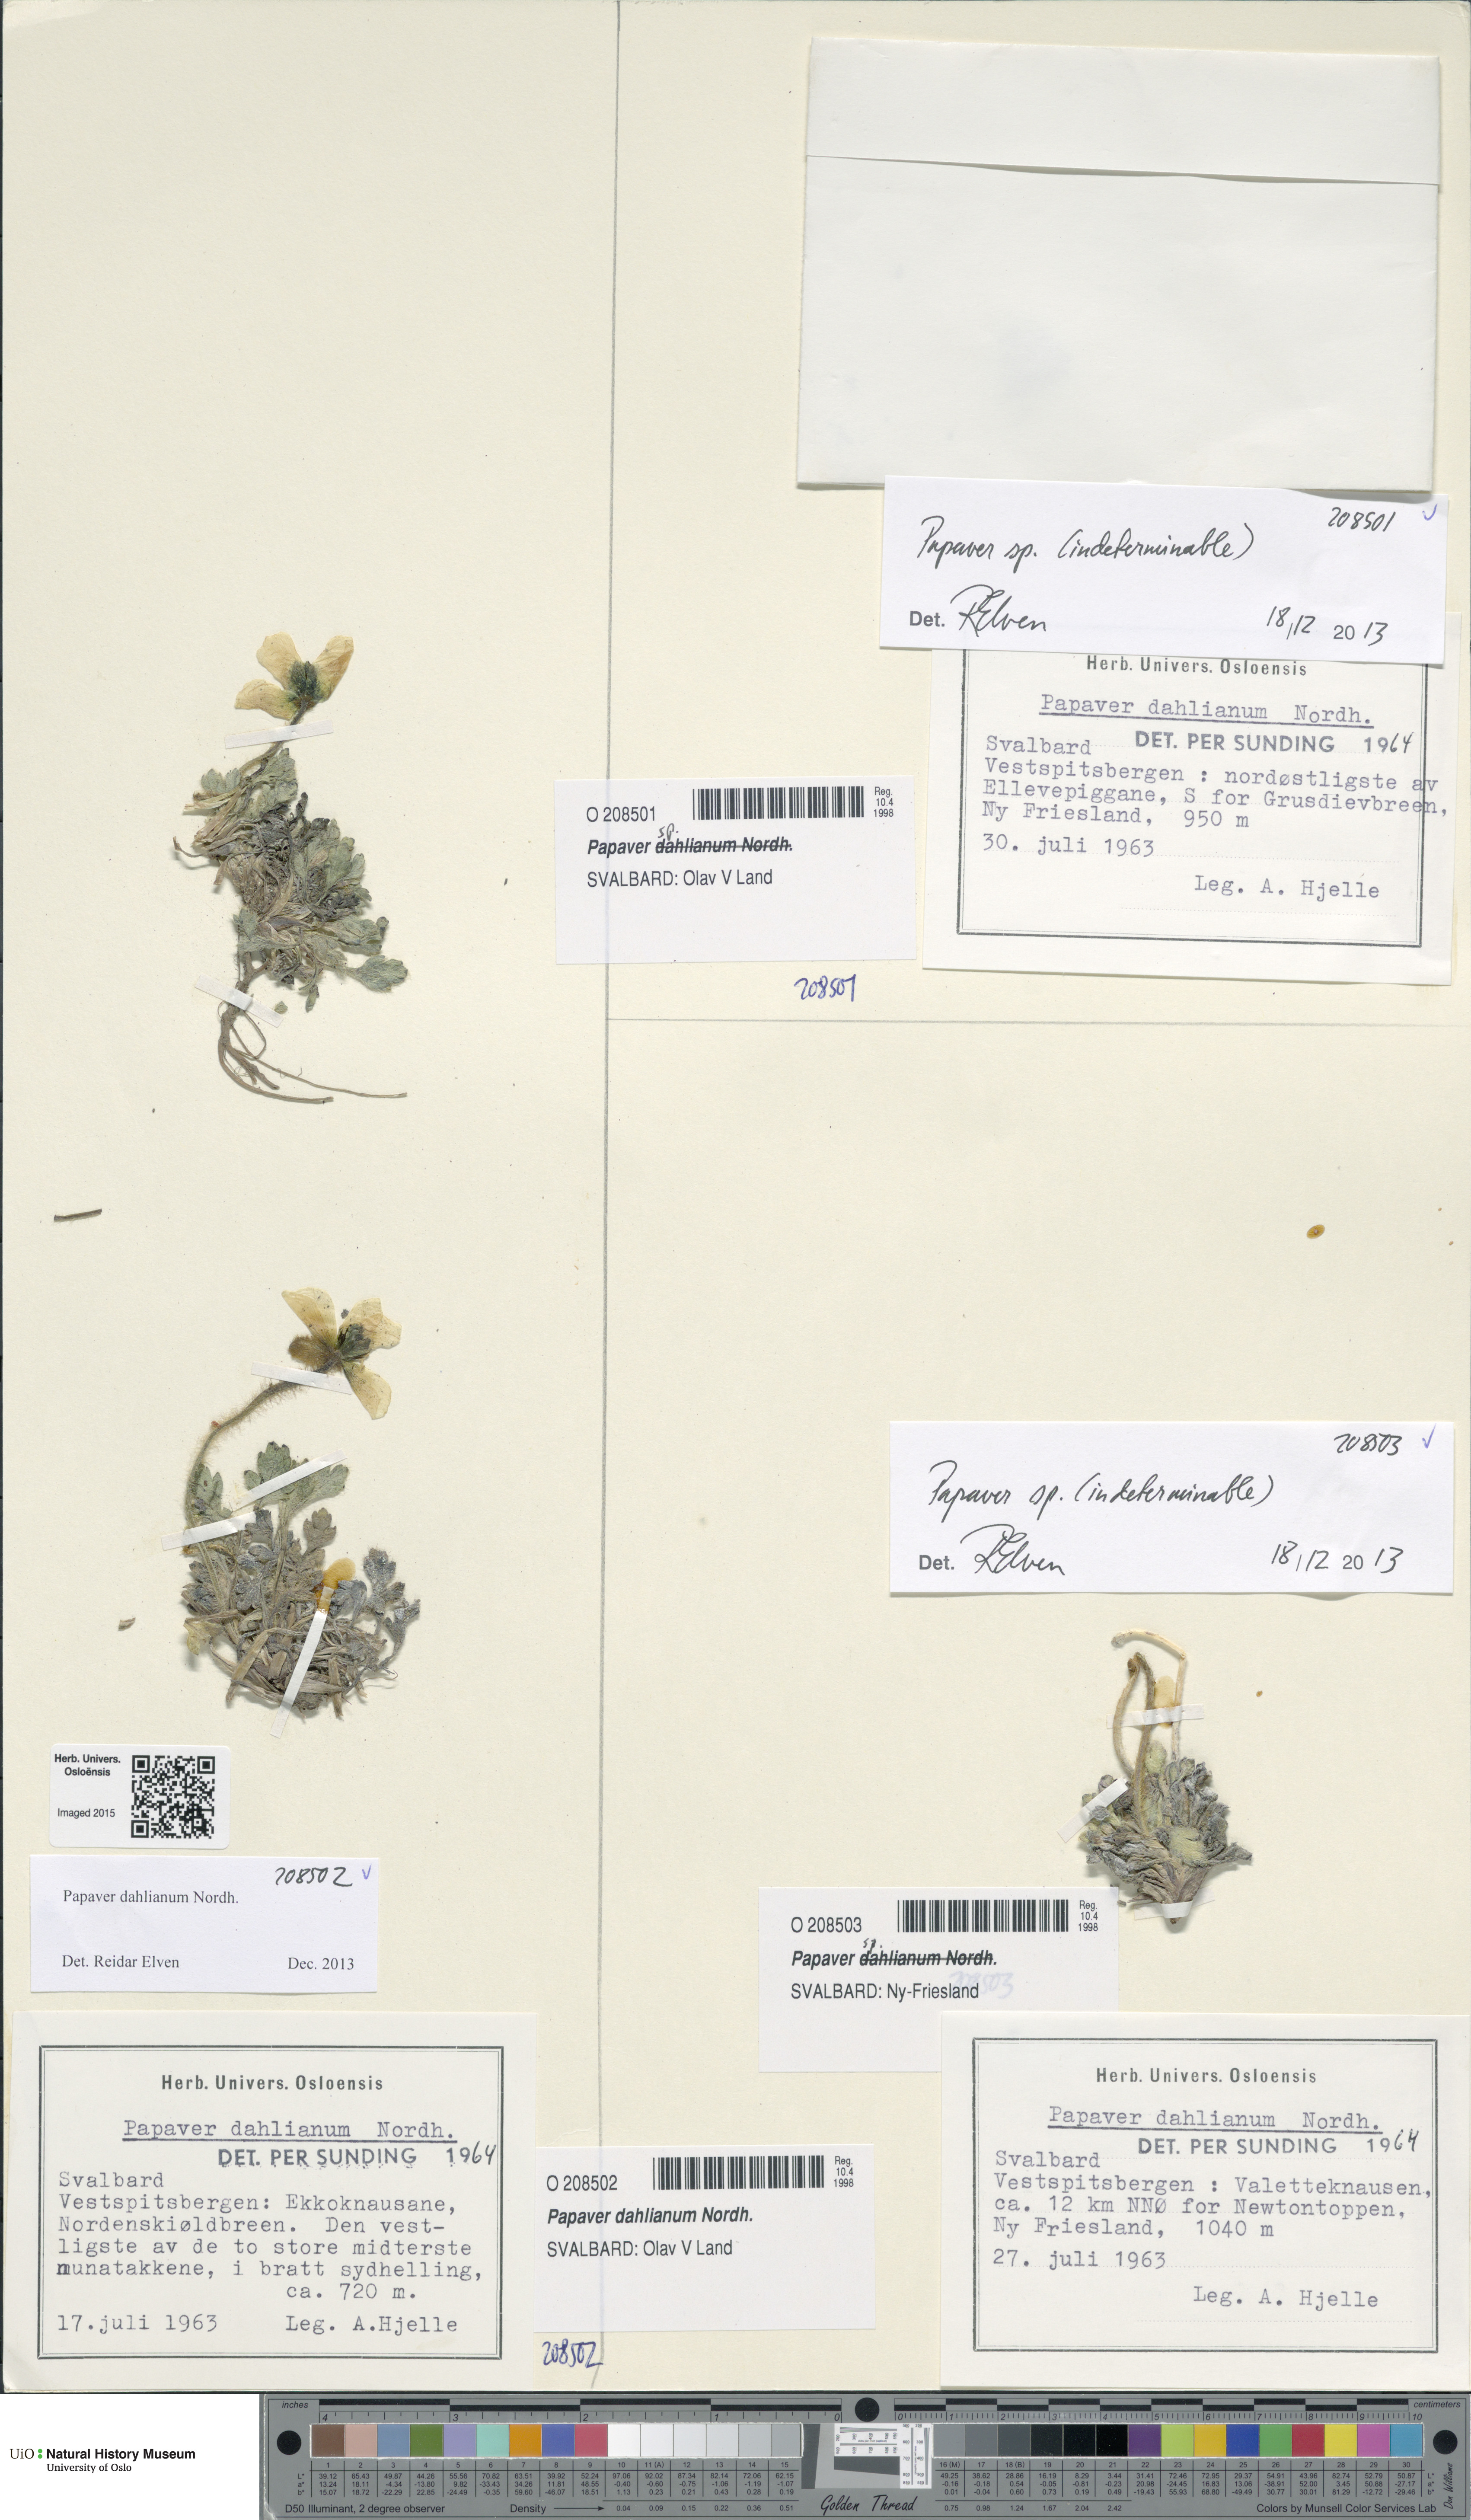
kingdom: Plantae
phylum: Tracheophyta
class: Magnoliopsida
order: Ranunculales
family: Papaveraceae
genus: Papaver
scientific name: Papaver
